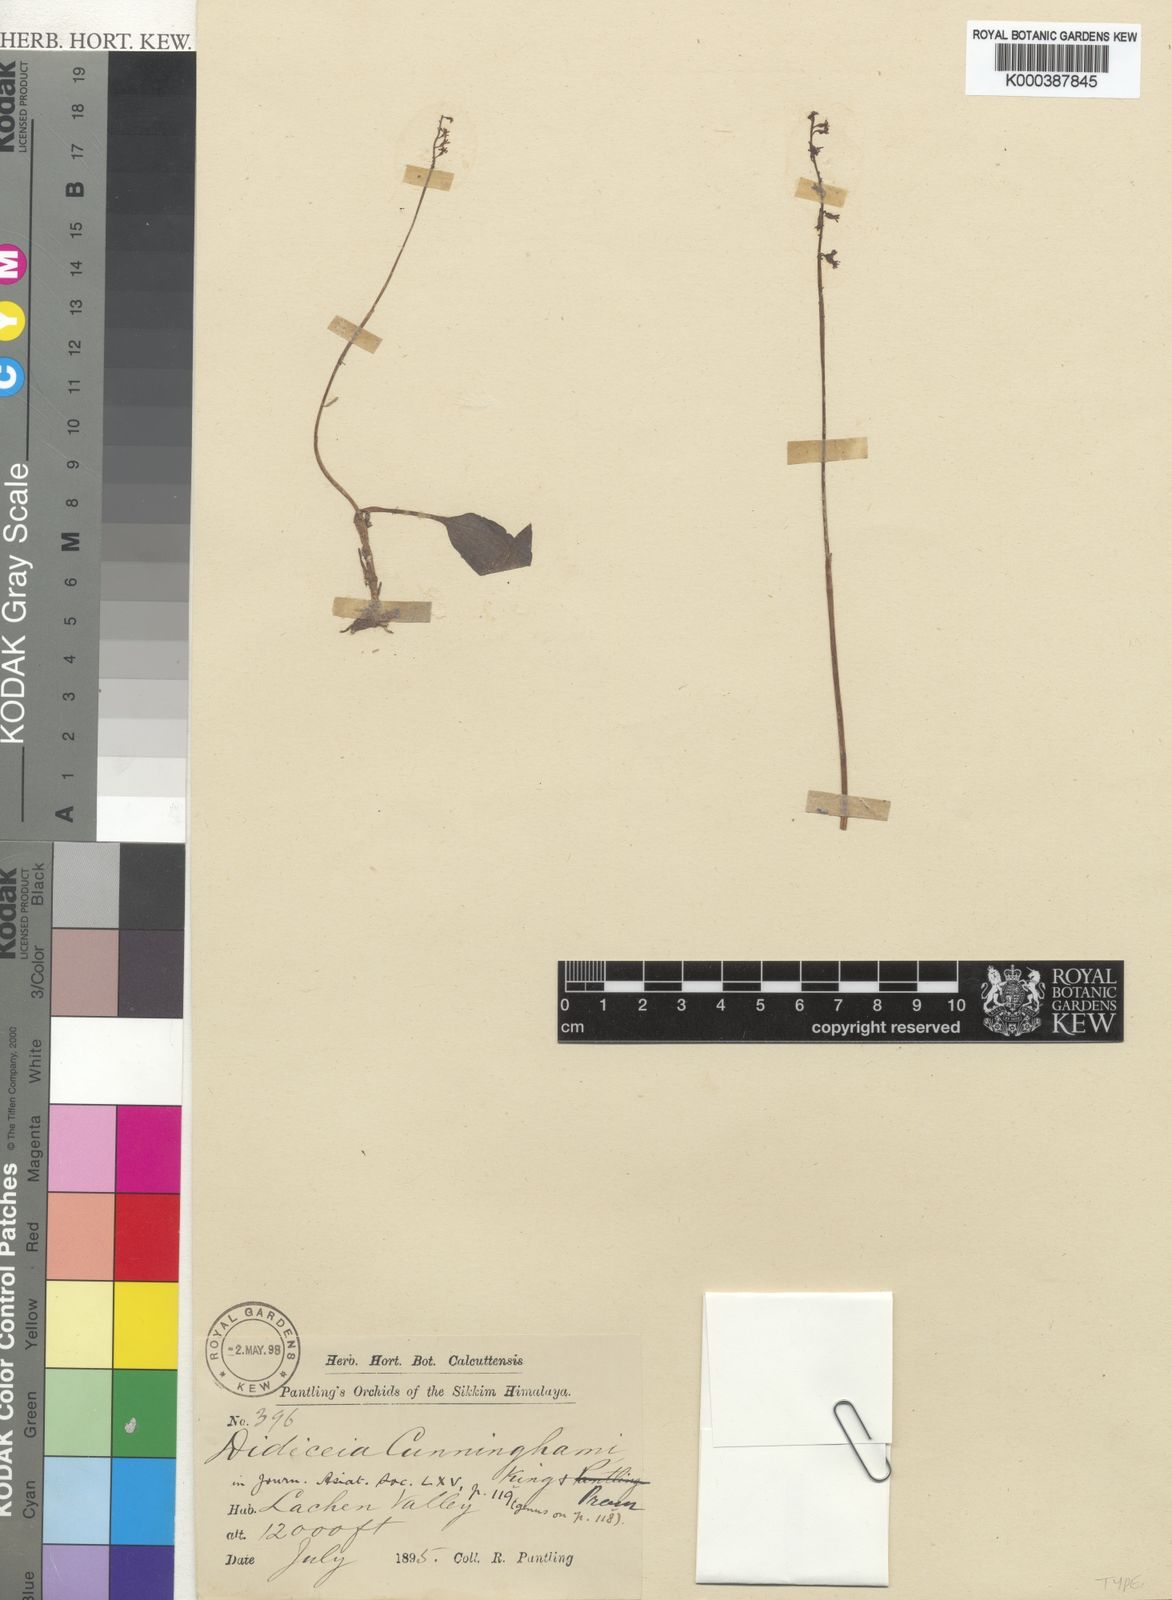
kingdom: Plantae
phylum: Tracheophyta
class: Liliopsida
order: Asparagales
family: Orchidaceae
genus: Tipularia
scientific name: Tipularia josephi
